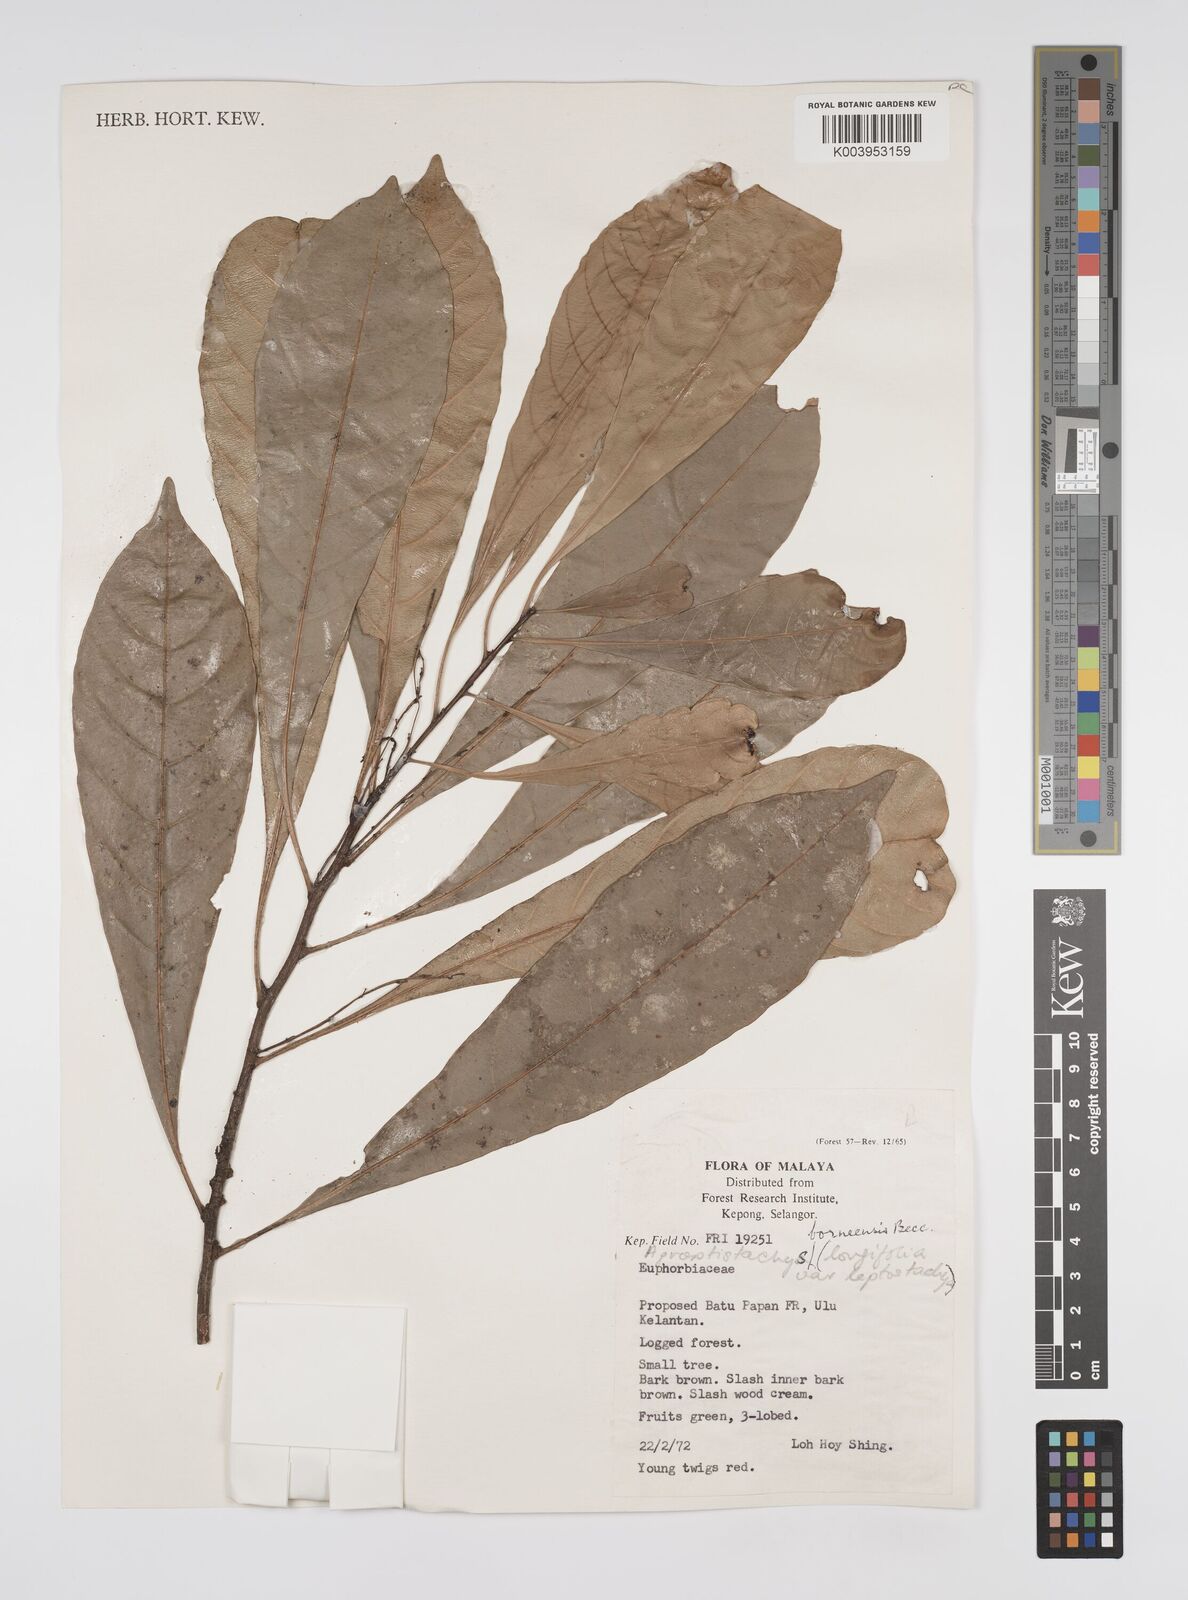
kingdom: Plantae
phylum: Tracheophyta
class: Magnoliopsida
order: Malpighiales
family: Euphorbiaceae
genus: Agrostistachys
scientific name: Agrostistachys borneensis
